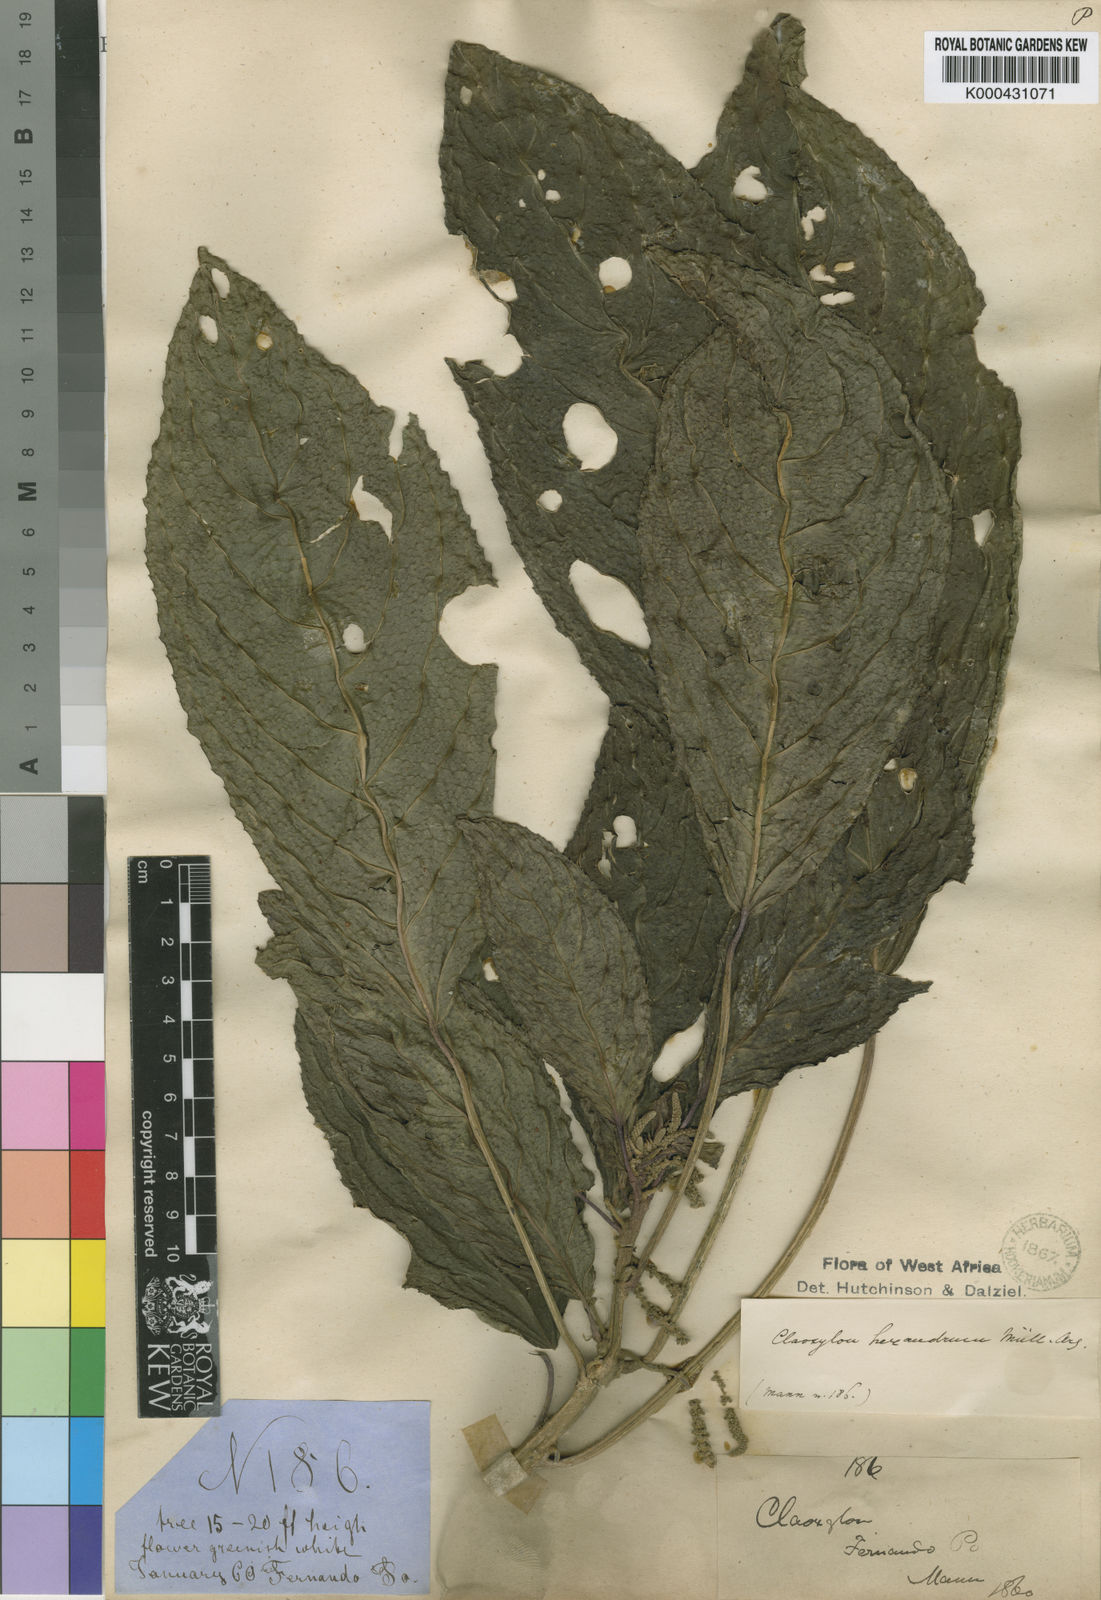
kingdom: Plantae
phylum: Tracheophyta
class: Magnoliopsida
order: Malpighiales
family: Euphorbiaceae
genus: Discoclaoxylon
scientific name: Discoclaoxylon
